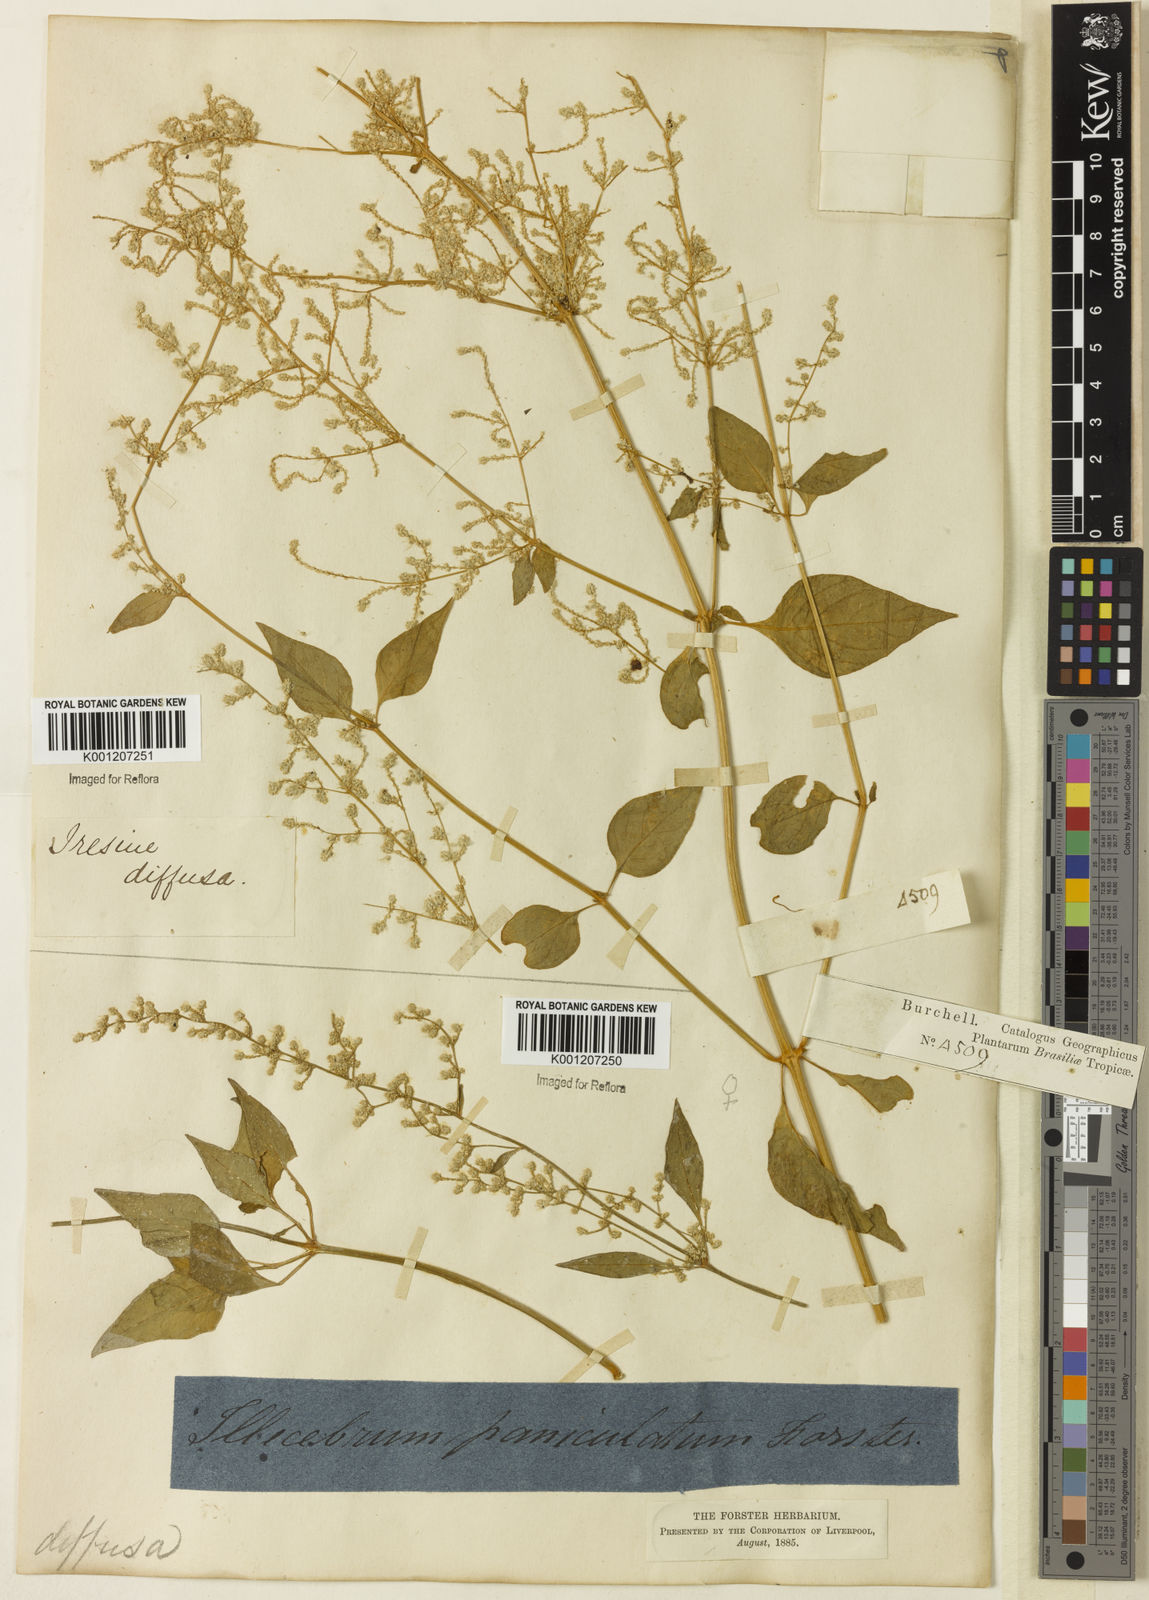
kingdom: Plantae
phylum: Tracheophyta
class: Magnoliopsida
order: Caryophyllales
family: Amaranthaceae
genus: Iresine
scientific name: Iresine rhizomatosa
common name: Juda's-bush
